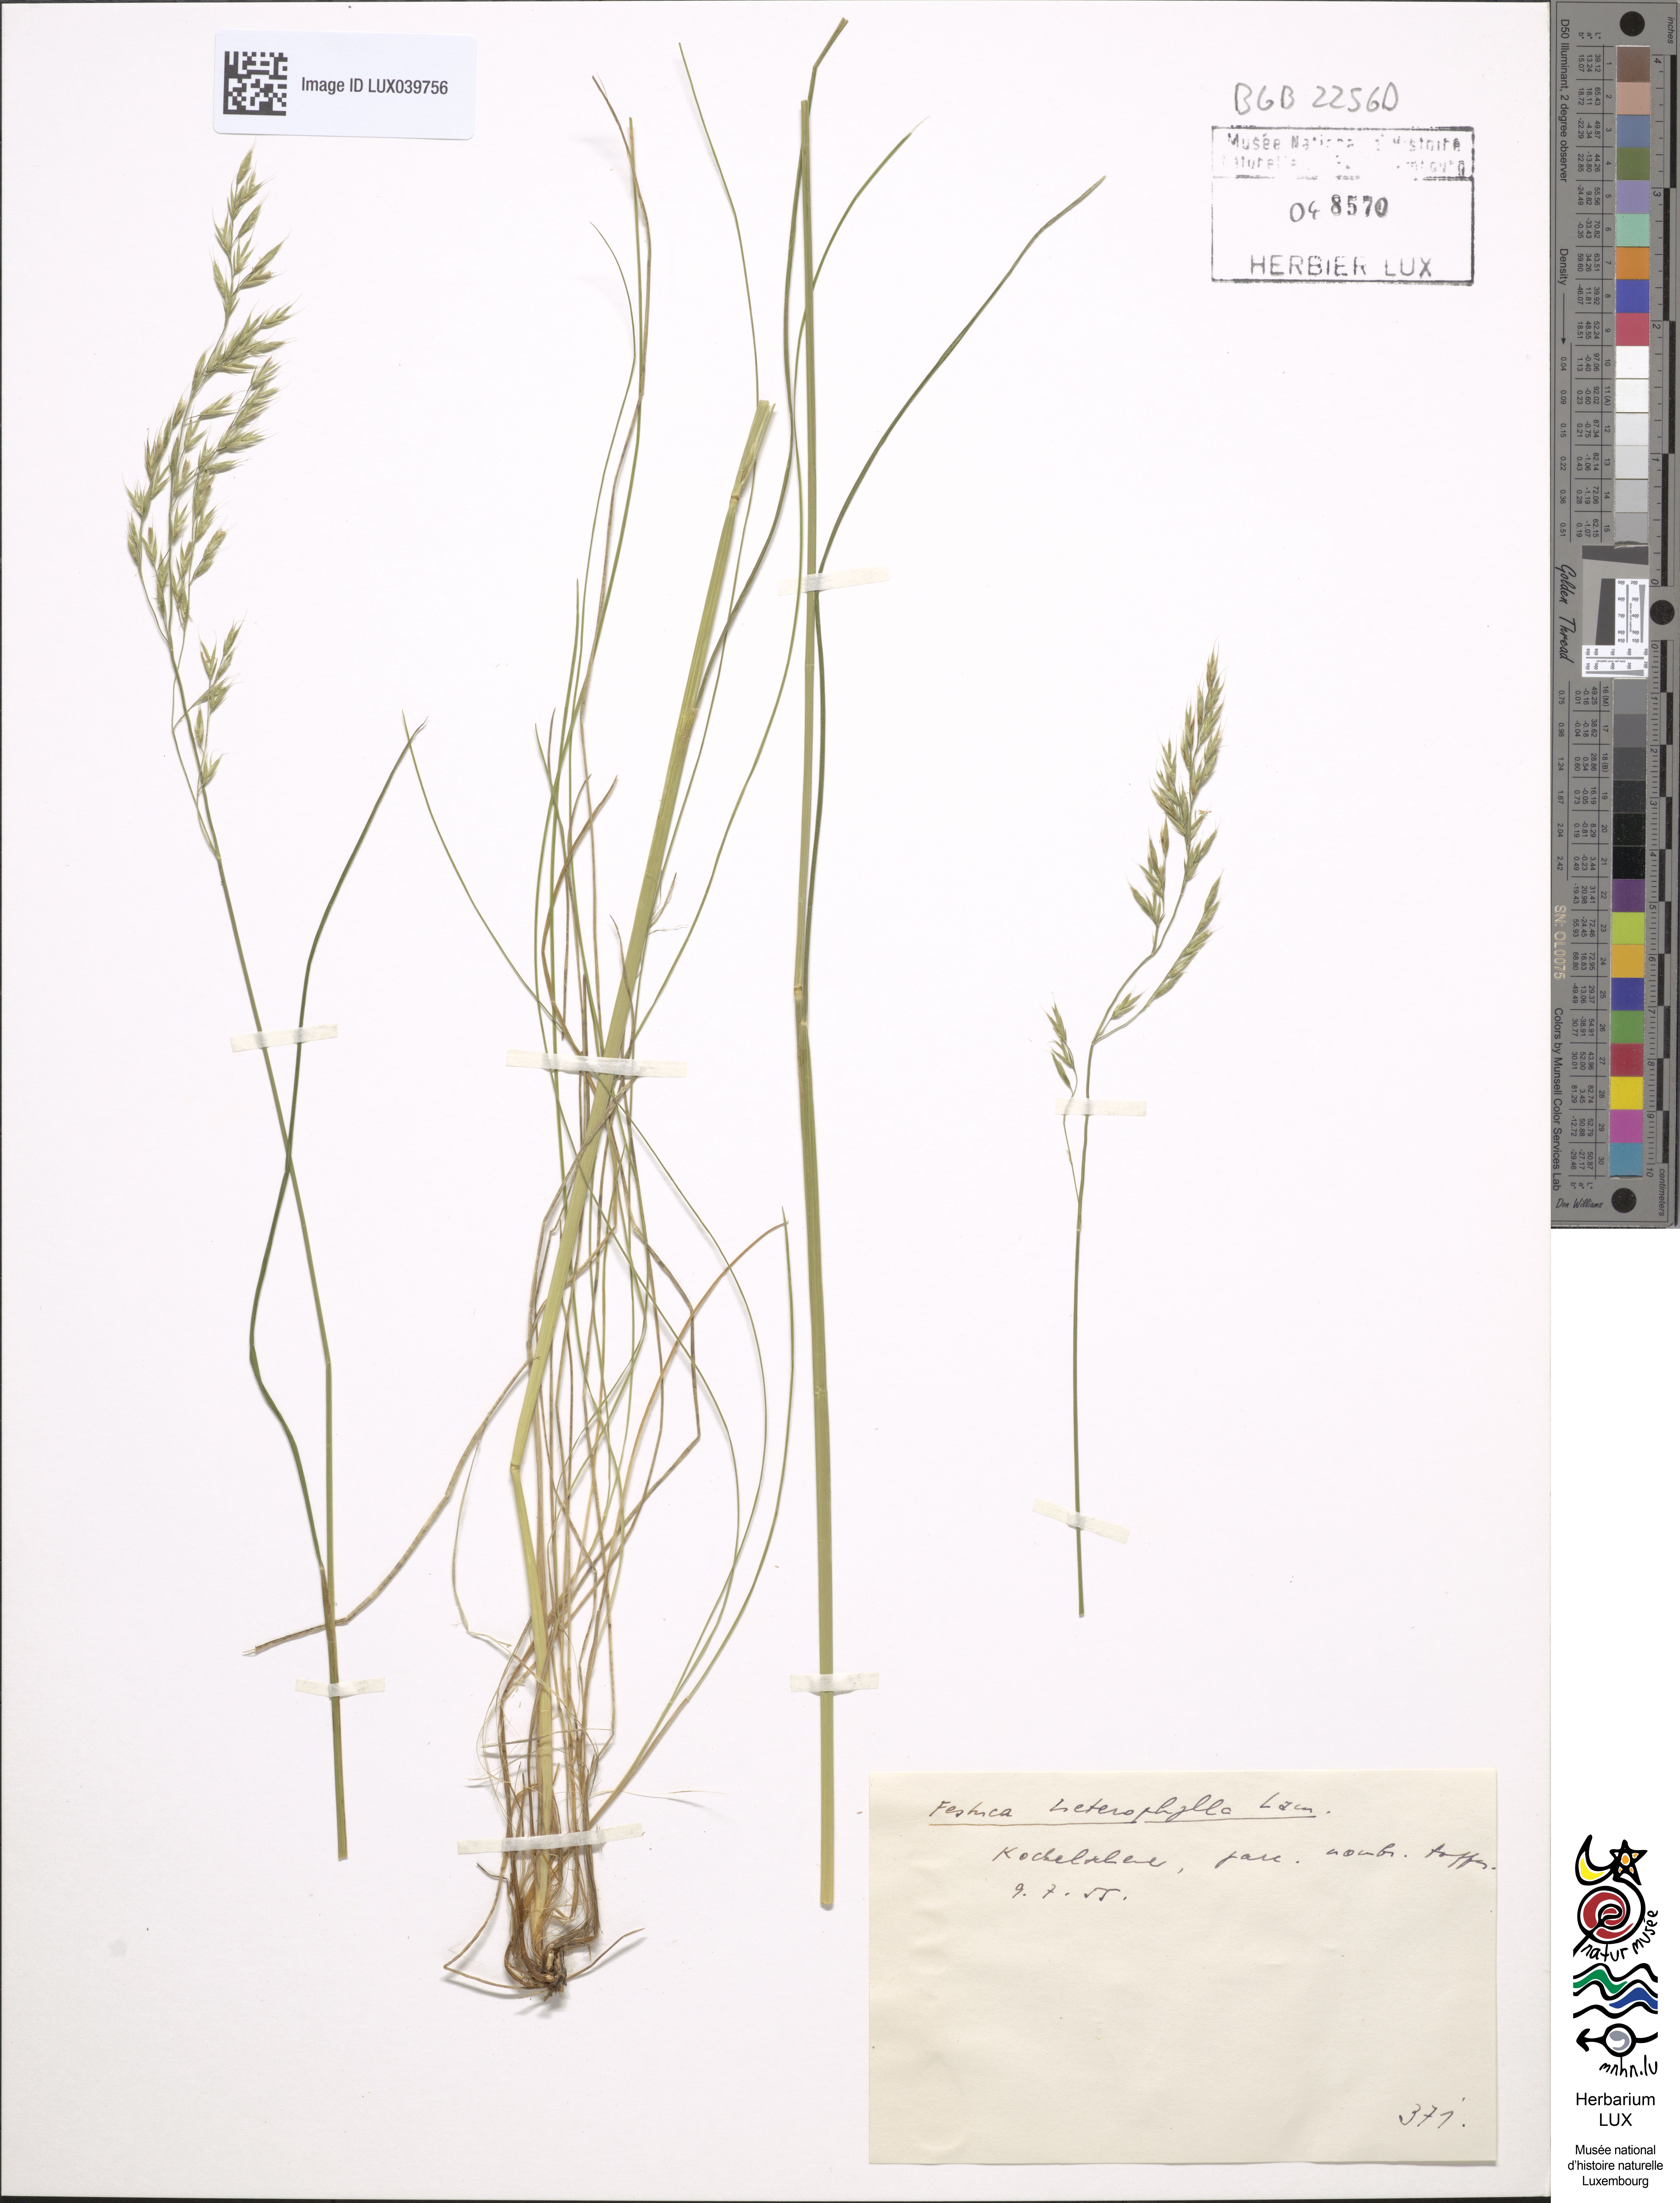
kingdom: Plantae
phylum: Tracheophyta
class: Liliopsida
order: Poales
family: Poaceae
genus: Festuca
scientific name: Festuca heterophylla
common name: Various-leaved fescue
